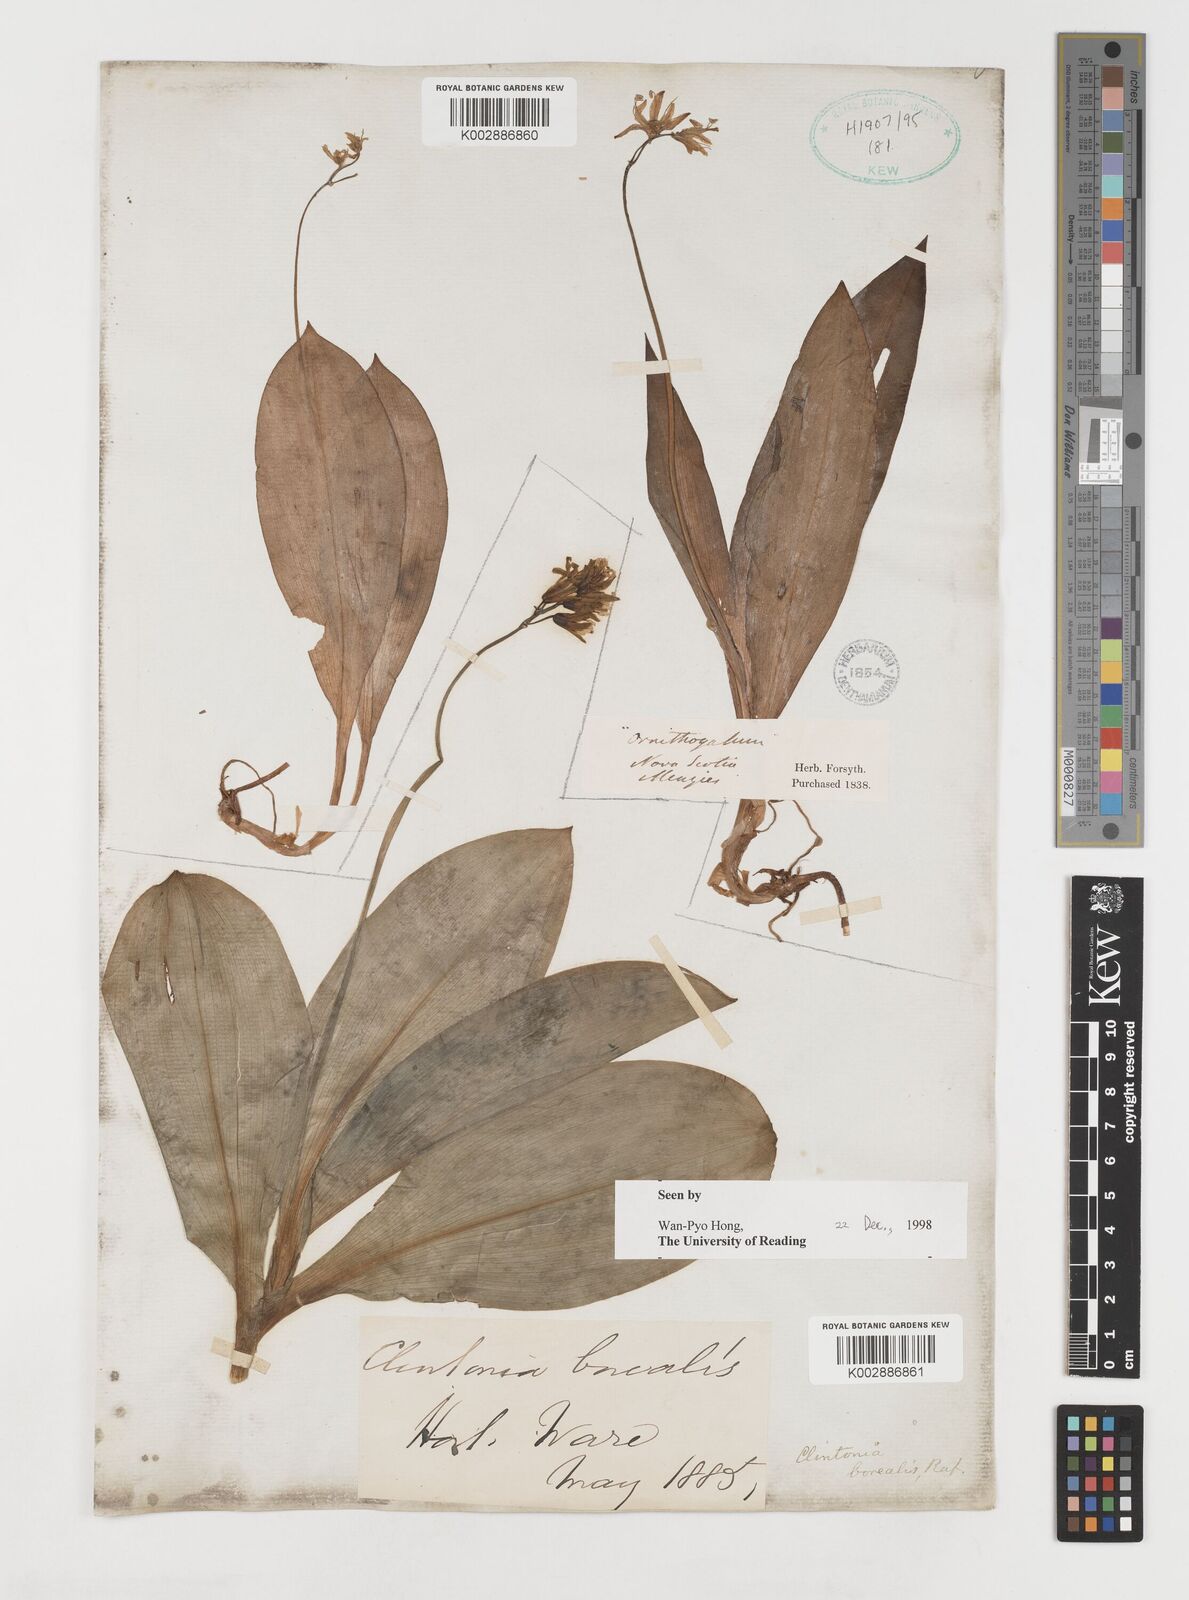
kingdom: Plantae
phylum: Tracheophyta
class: Liliopsida
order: Liliales
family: Liliaceae
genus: Clintonia
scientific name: Clintonia borealis
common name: Yellow clintonia
